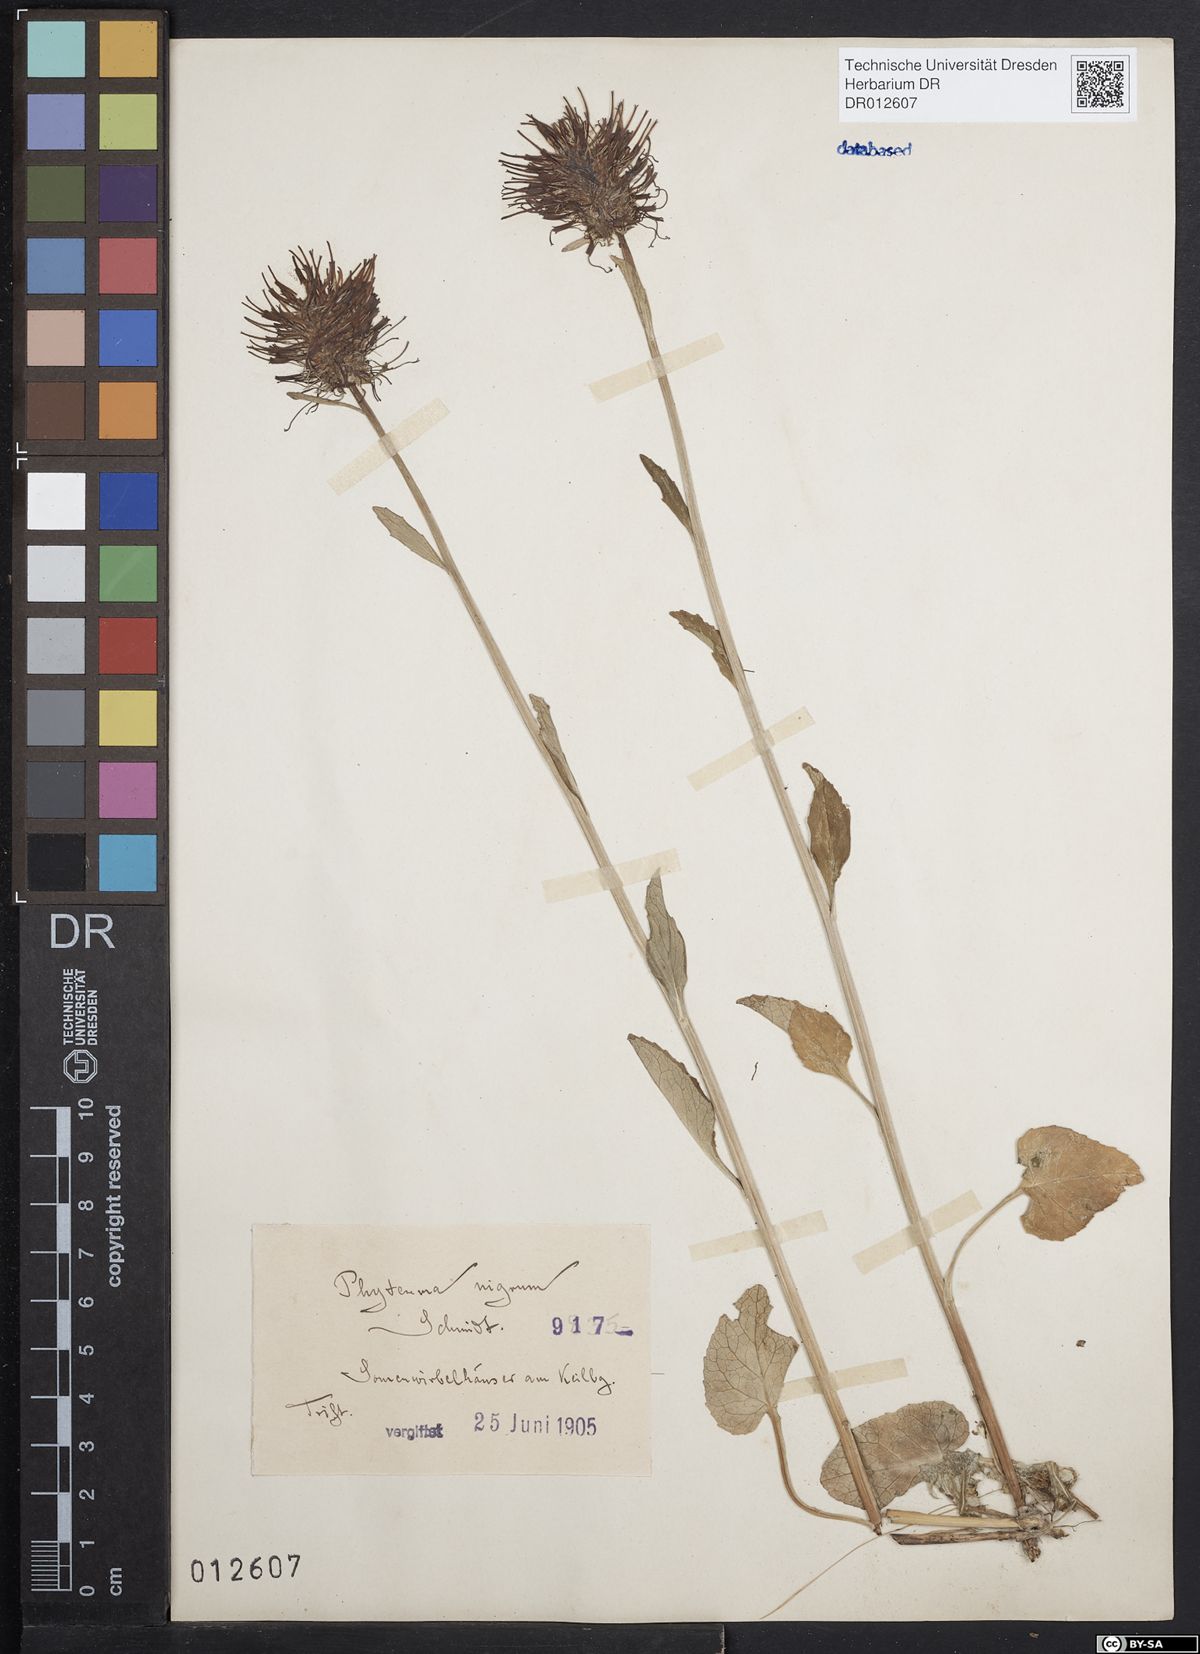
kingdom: Plantae
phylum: Tracheophyta
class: Magnoliopsida
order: Asterales
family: Campanulaceae
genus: Phyteuma
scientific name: Phyteuma nigrum
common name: Black rampion
